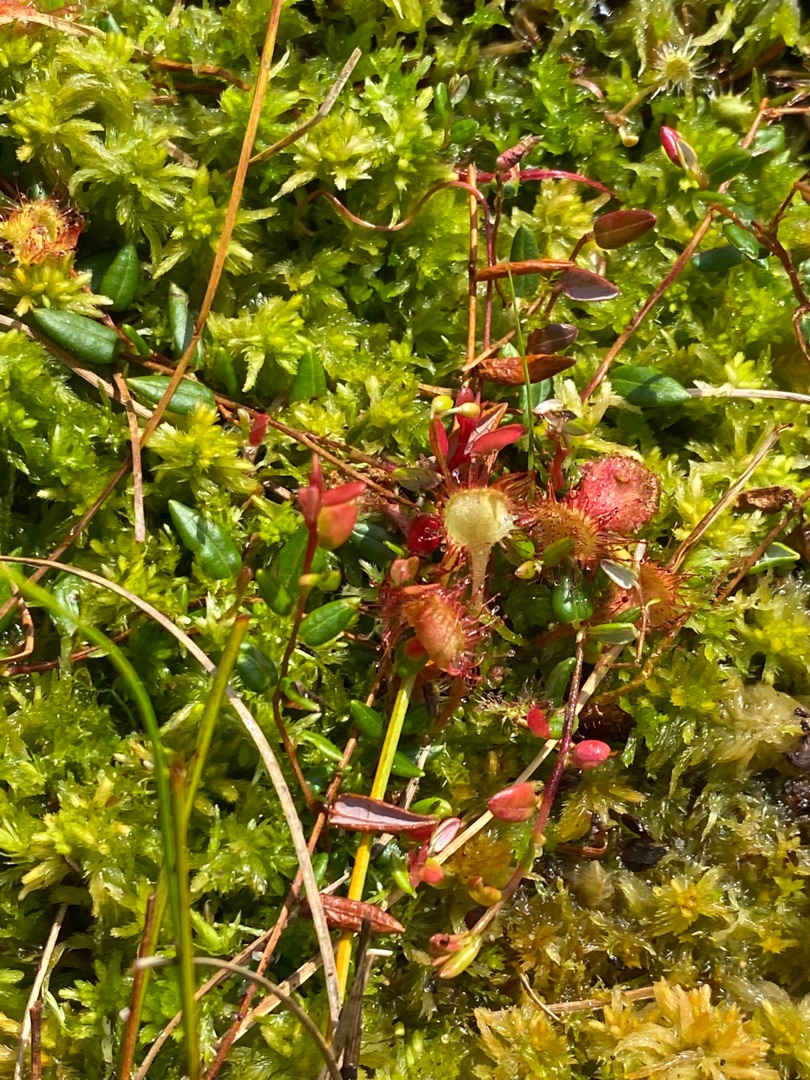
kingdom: Plantae
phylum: Tracheophyta
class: Magnoliopsida
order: Caryophyllales
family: Droseraceae
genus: Drosera
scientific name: Drosera rotundifolia
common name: Rundbladet soldug
